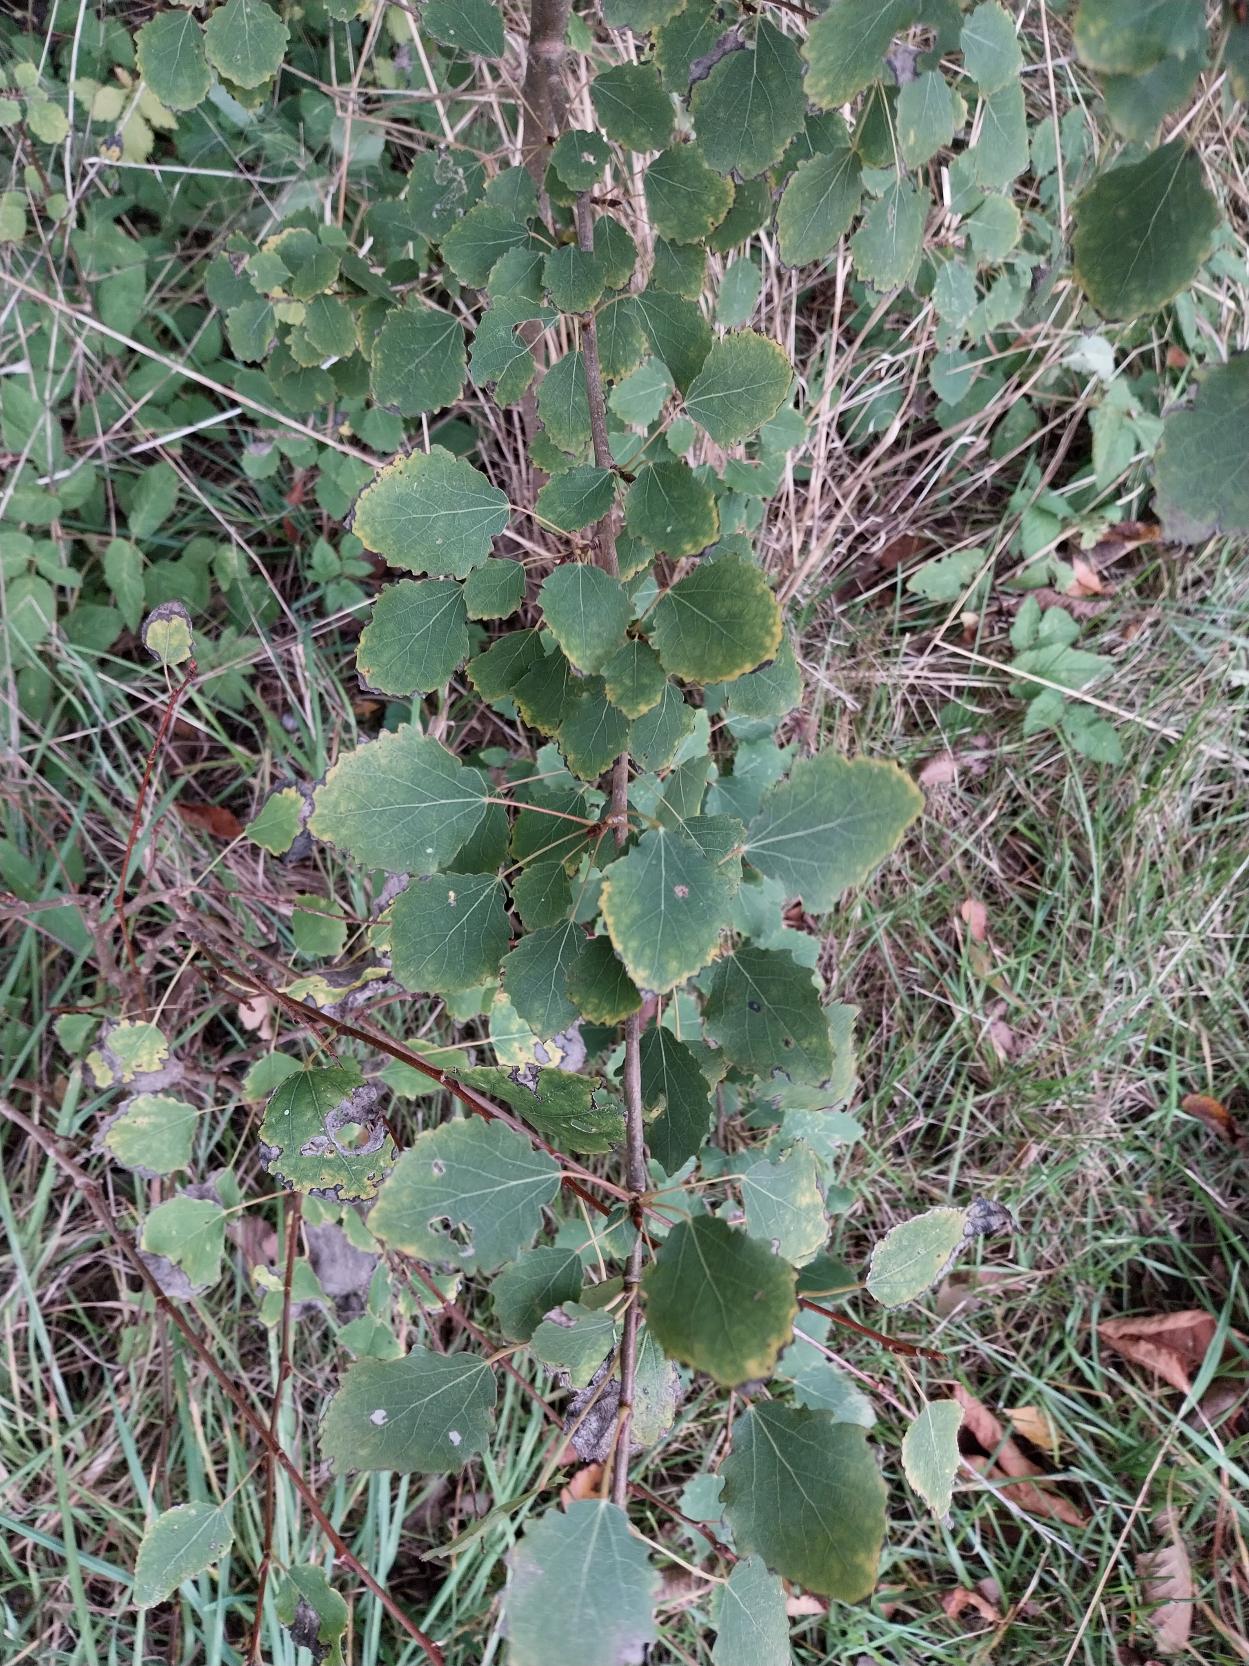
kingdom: Plantae
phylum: Tracheophyta
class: Magnoliopsida
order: Malpighiales
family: Salicaceae
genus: Populus
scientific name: Populus tremula
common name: Bævreasp
